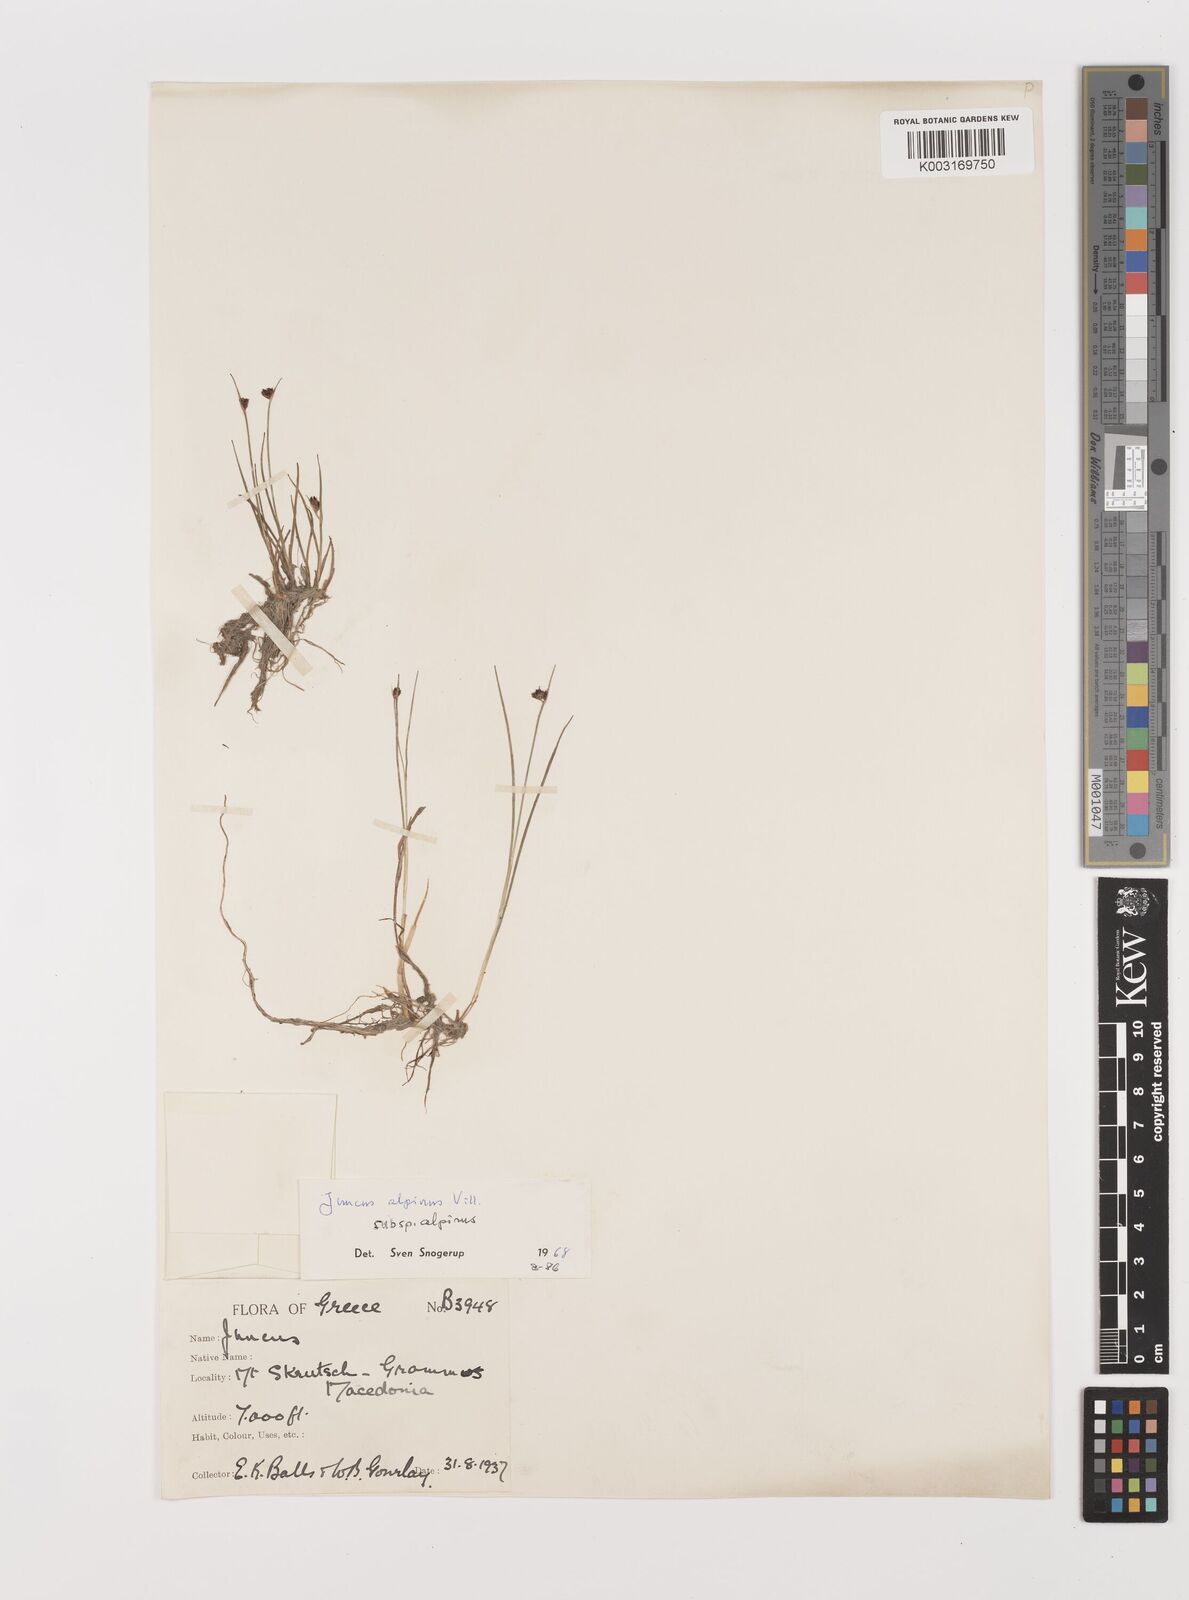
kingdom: Plantae
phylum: Tracheophyta
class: Liliopsida
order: Poales
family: Juncaceae
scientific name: Juncaceae
